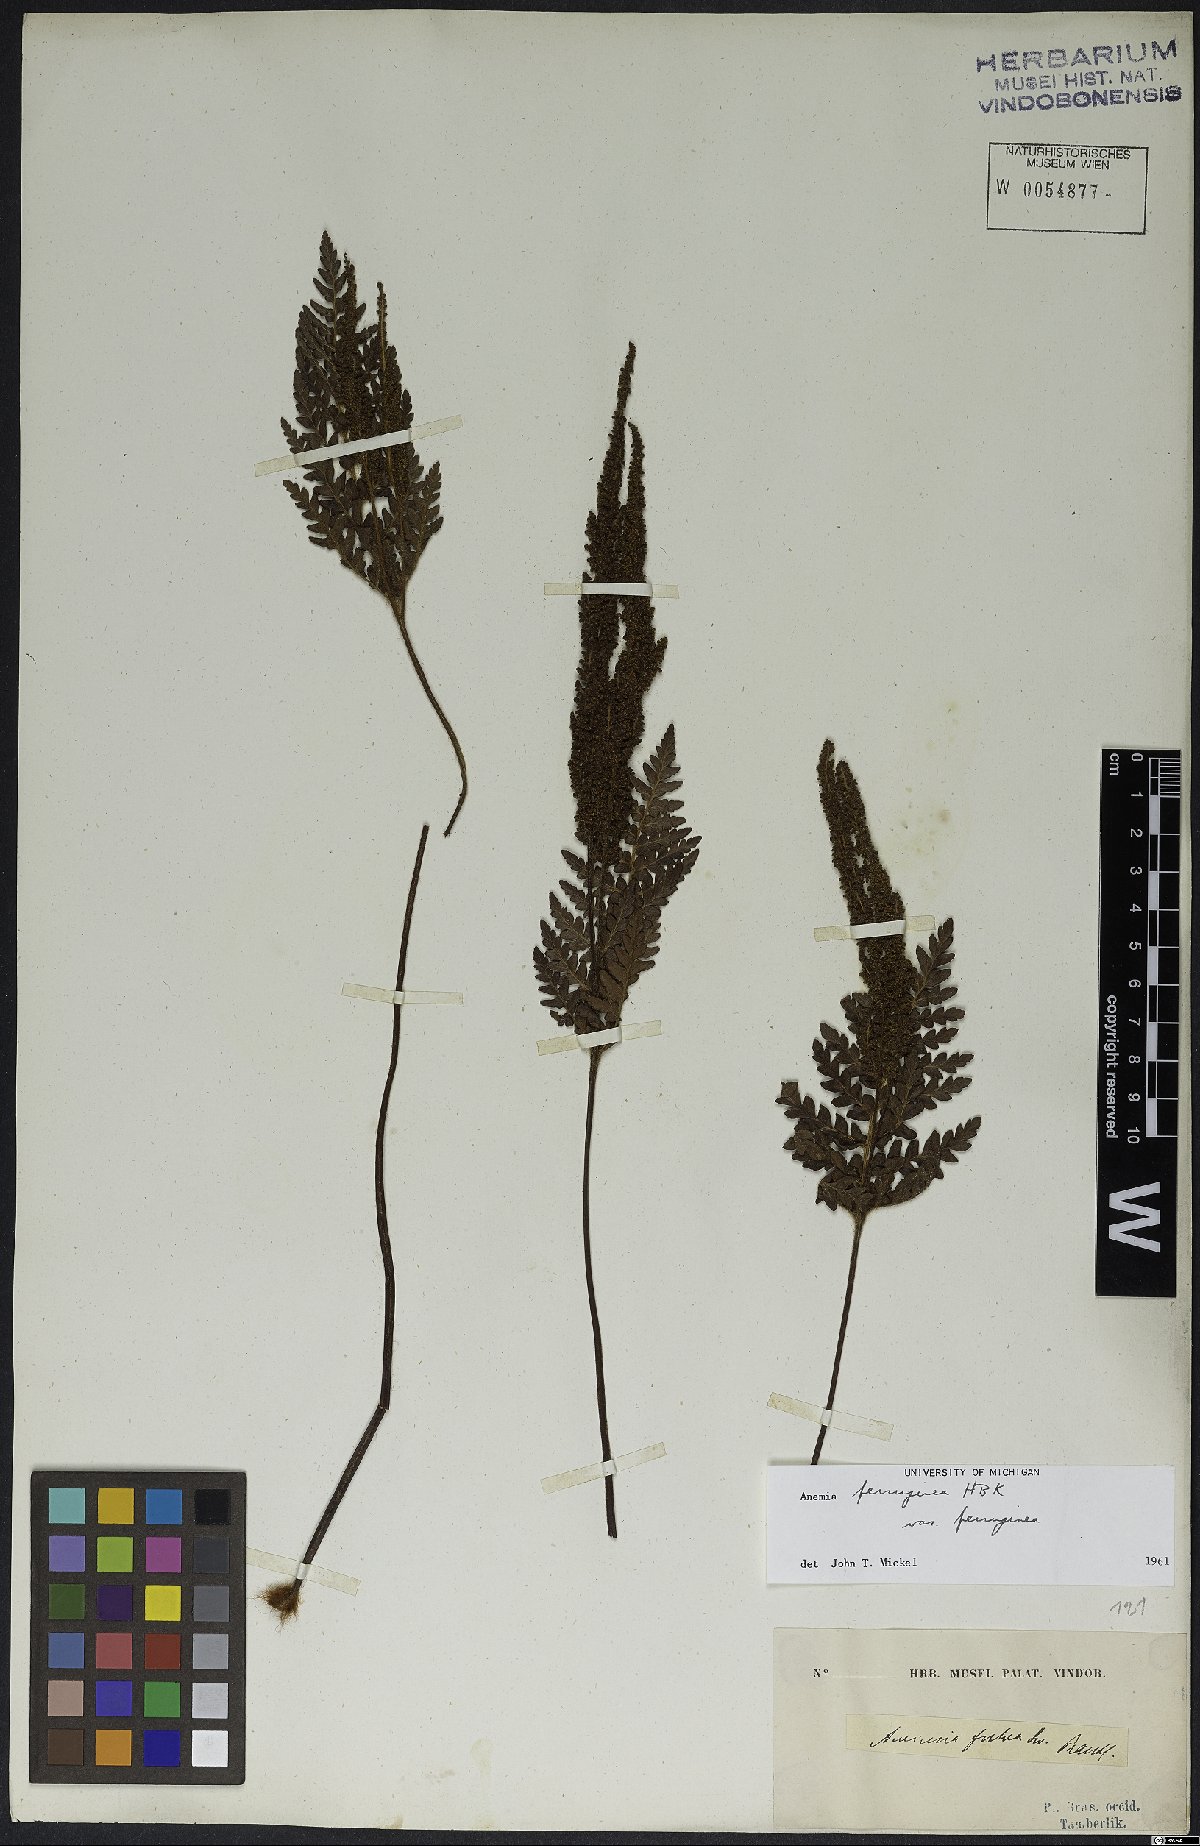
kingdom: Plantae
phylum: Tracheophyta
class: Polypodiopsida
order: Schizaeales
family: Anemiaceae
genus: Anemia
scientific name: Anemia ferruginea
